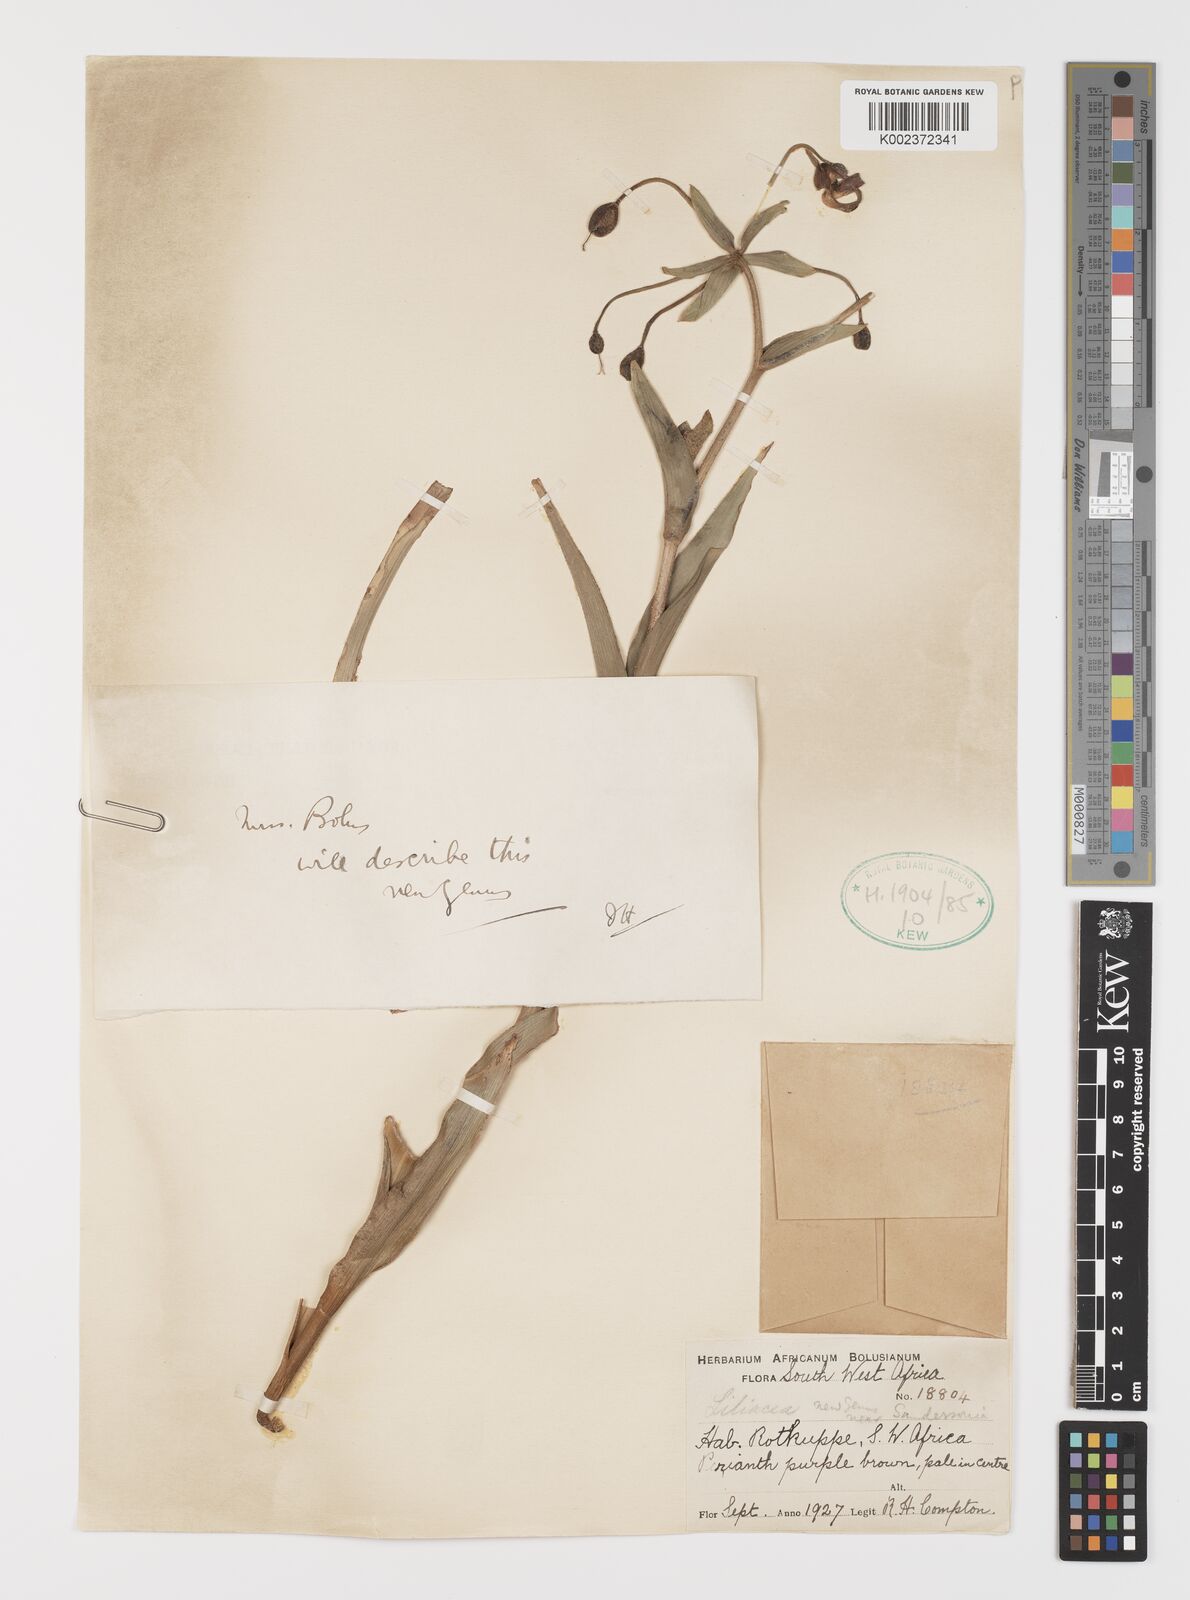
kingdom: Plantae
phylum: Tracheophyta
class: Liliopsida
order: Liliales
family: Colchicaceae
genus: Hexacyrtis
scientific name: Hexacyrtis dickiana
